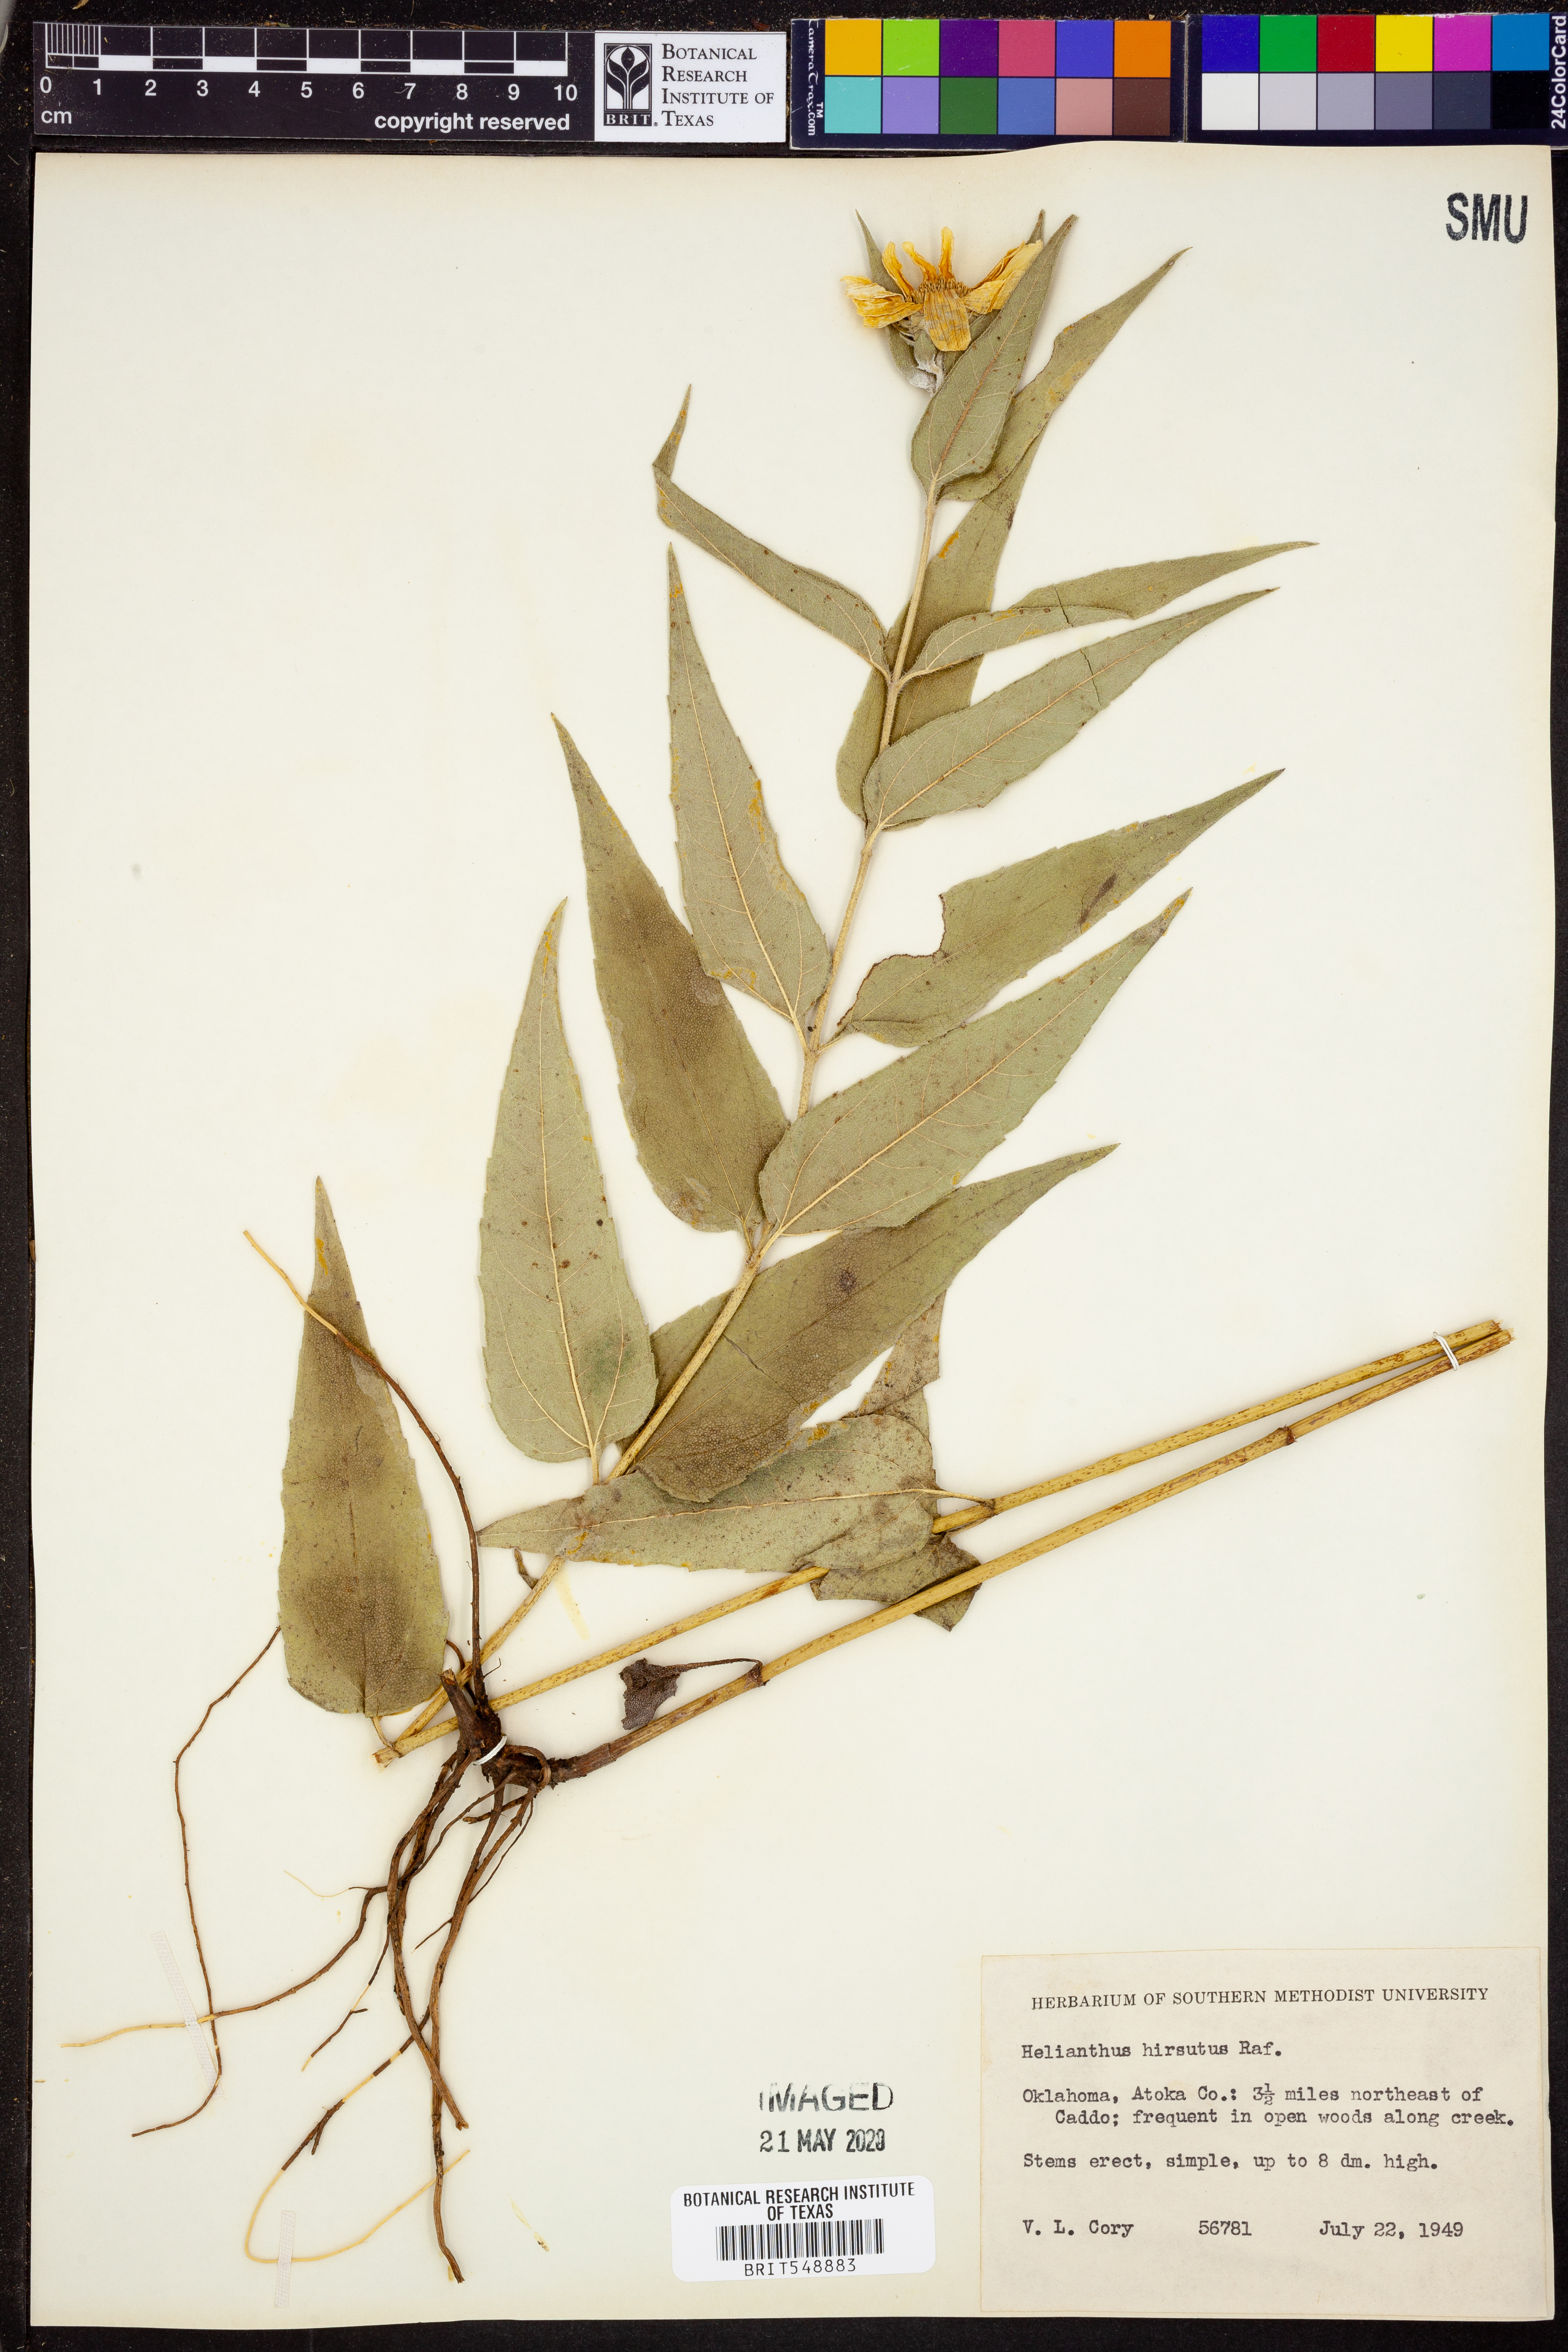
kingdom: Plantae
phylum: Tracheophyta
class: Magnoliopsida
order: Asterales
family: Asteraceae
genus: Helianthus
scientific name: Helianthus hirsutus
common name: Hairy sunflower
